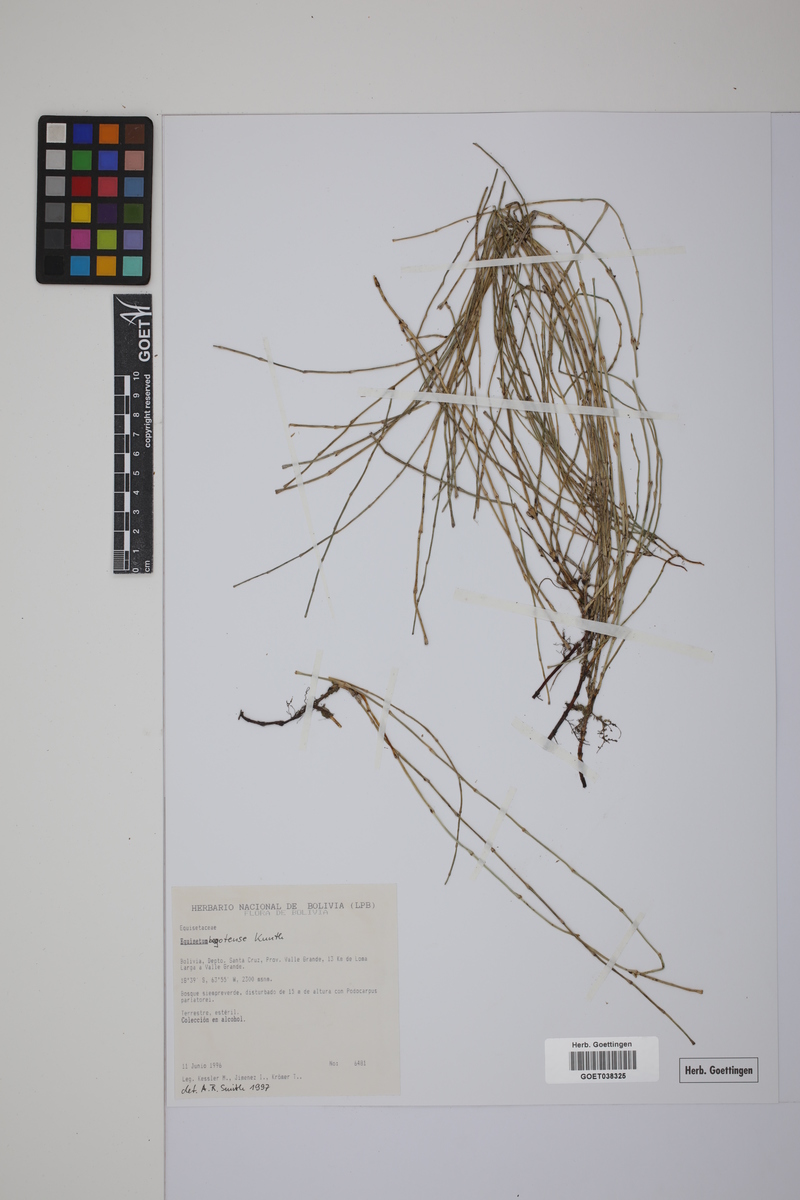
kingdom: Plantae
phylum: Tracheophyta
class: Polypodiopsida
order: Equisetales
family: Equisetaceae
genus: Equisetum
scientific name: Equisetum bogotense
